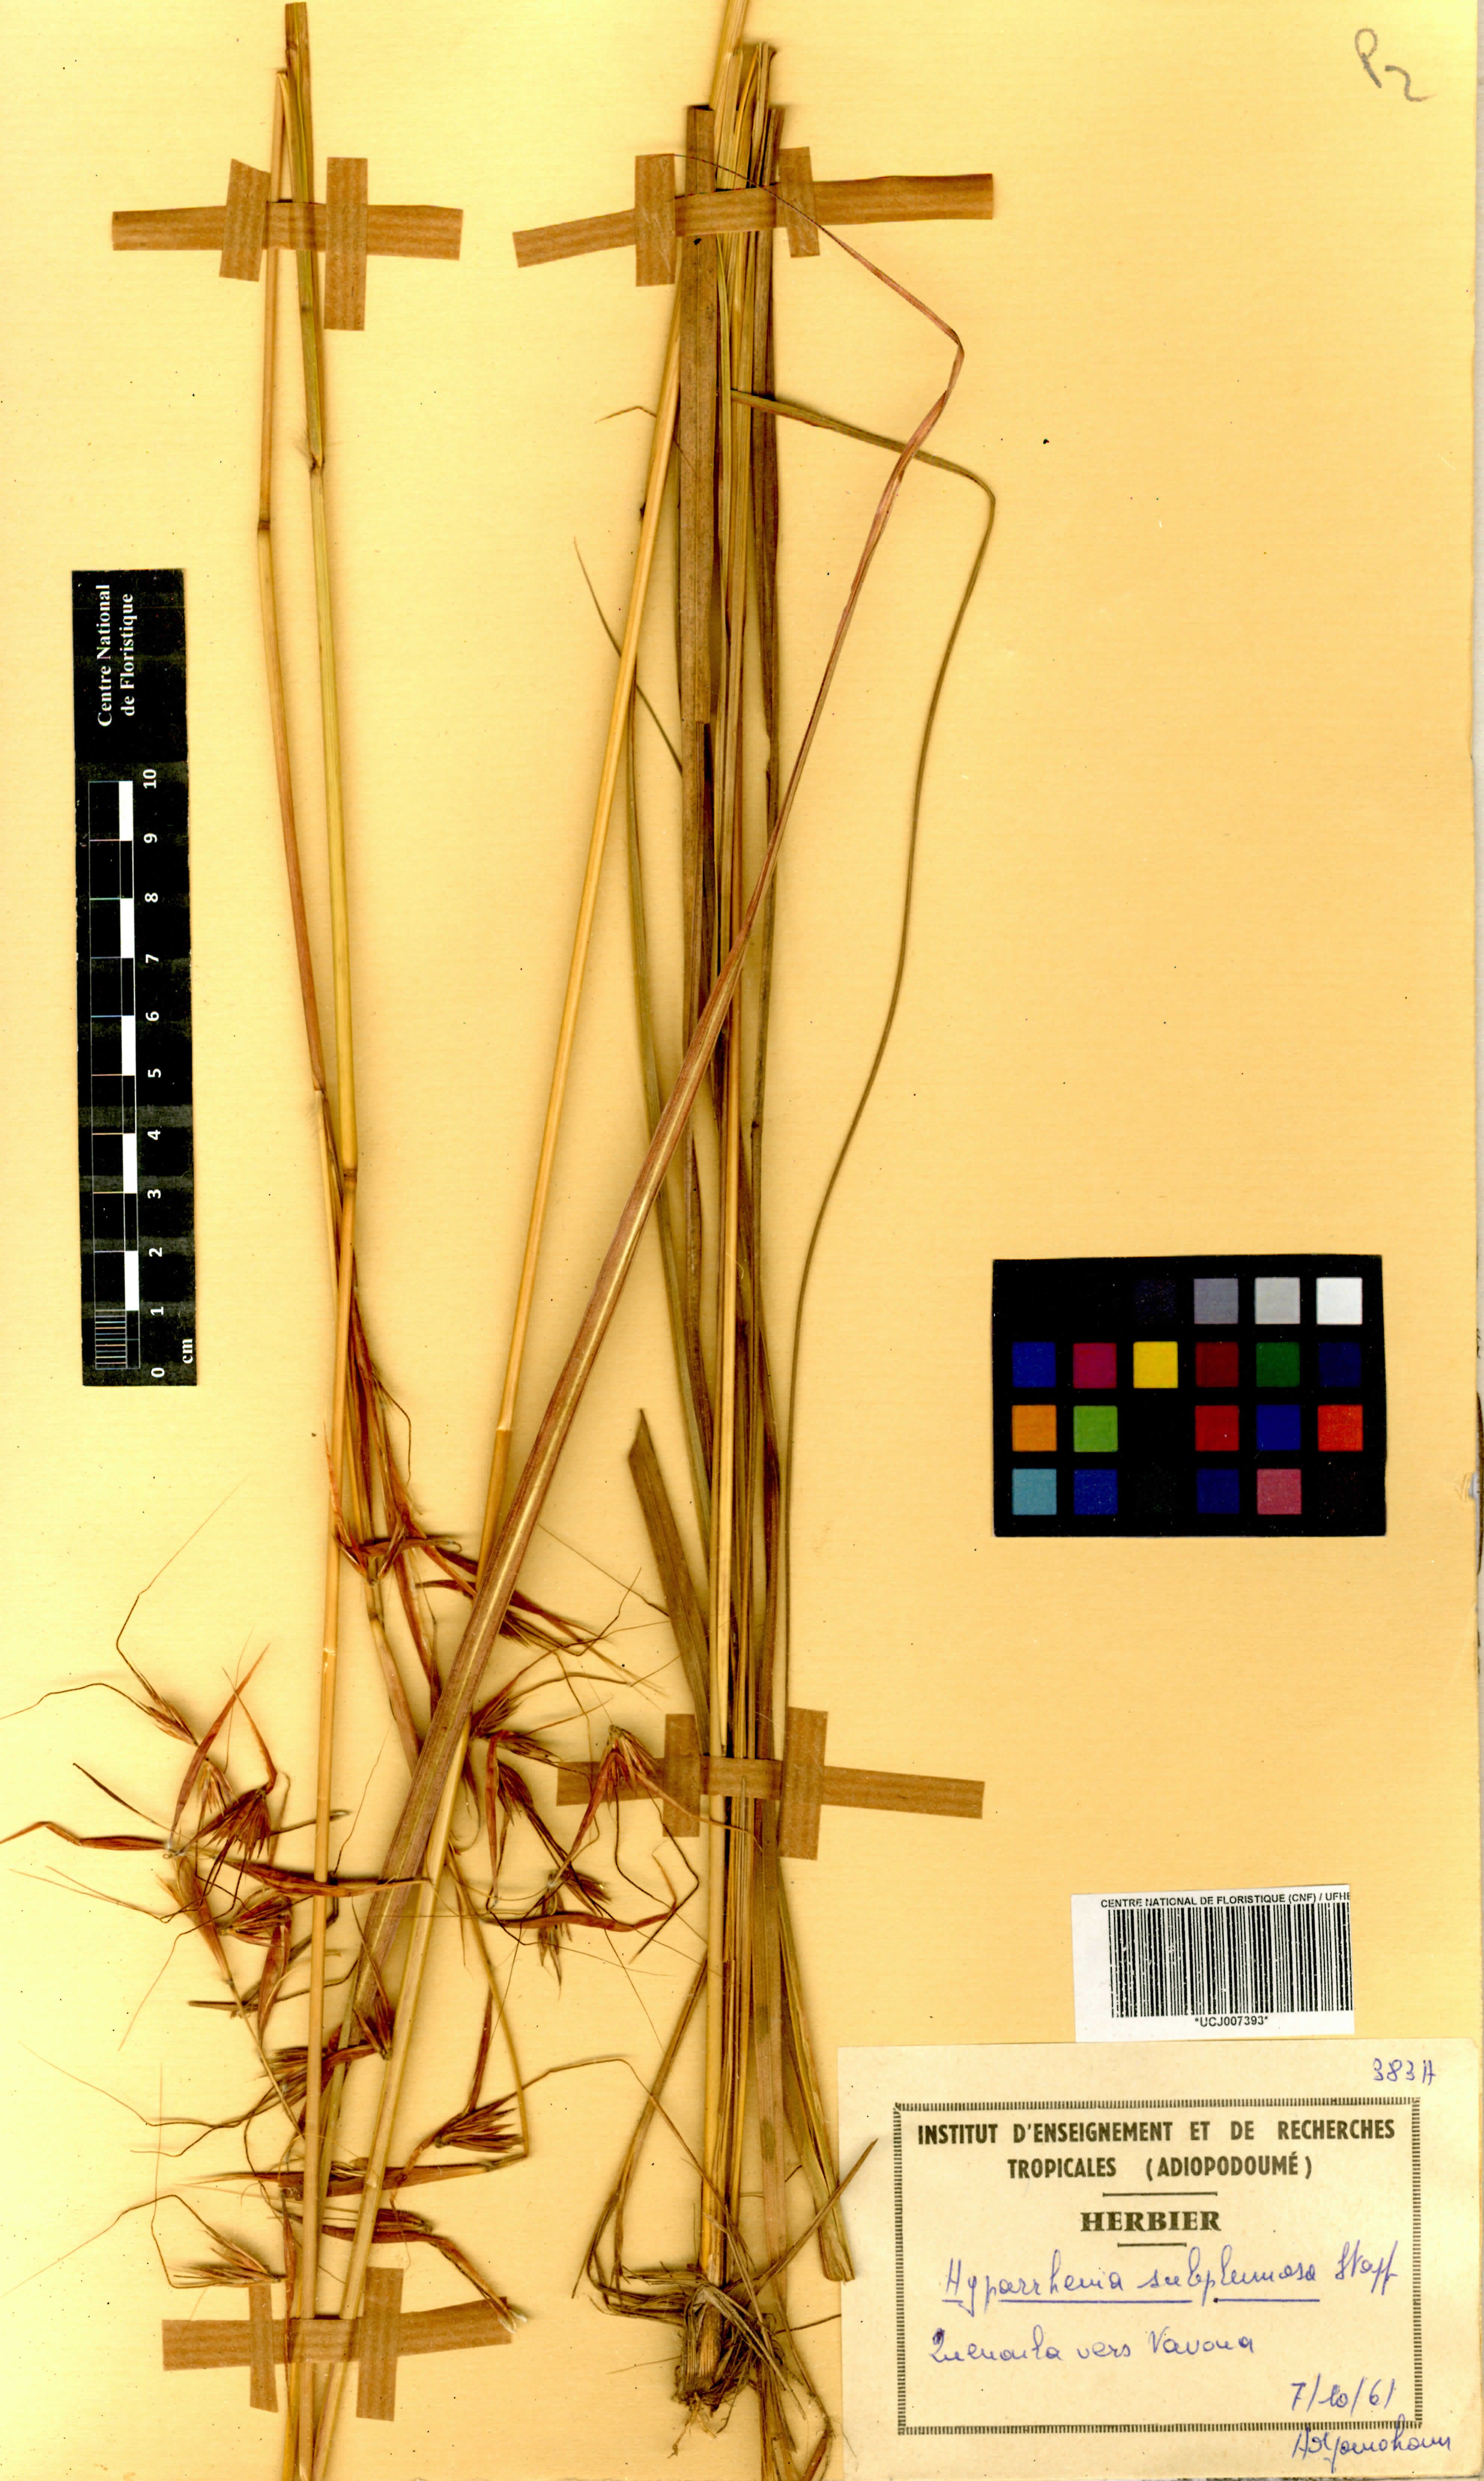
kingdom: Plantae
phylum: Tracheophyta
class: Liliopsida
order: Poales
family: Poaceae
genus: Hyparrhenia
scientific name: Hyparrhenia subplumosa
